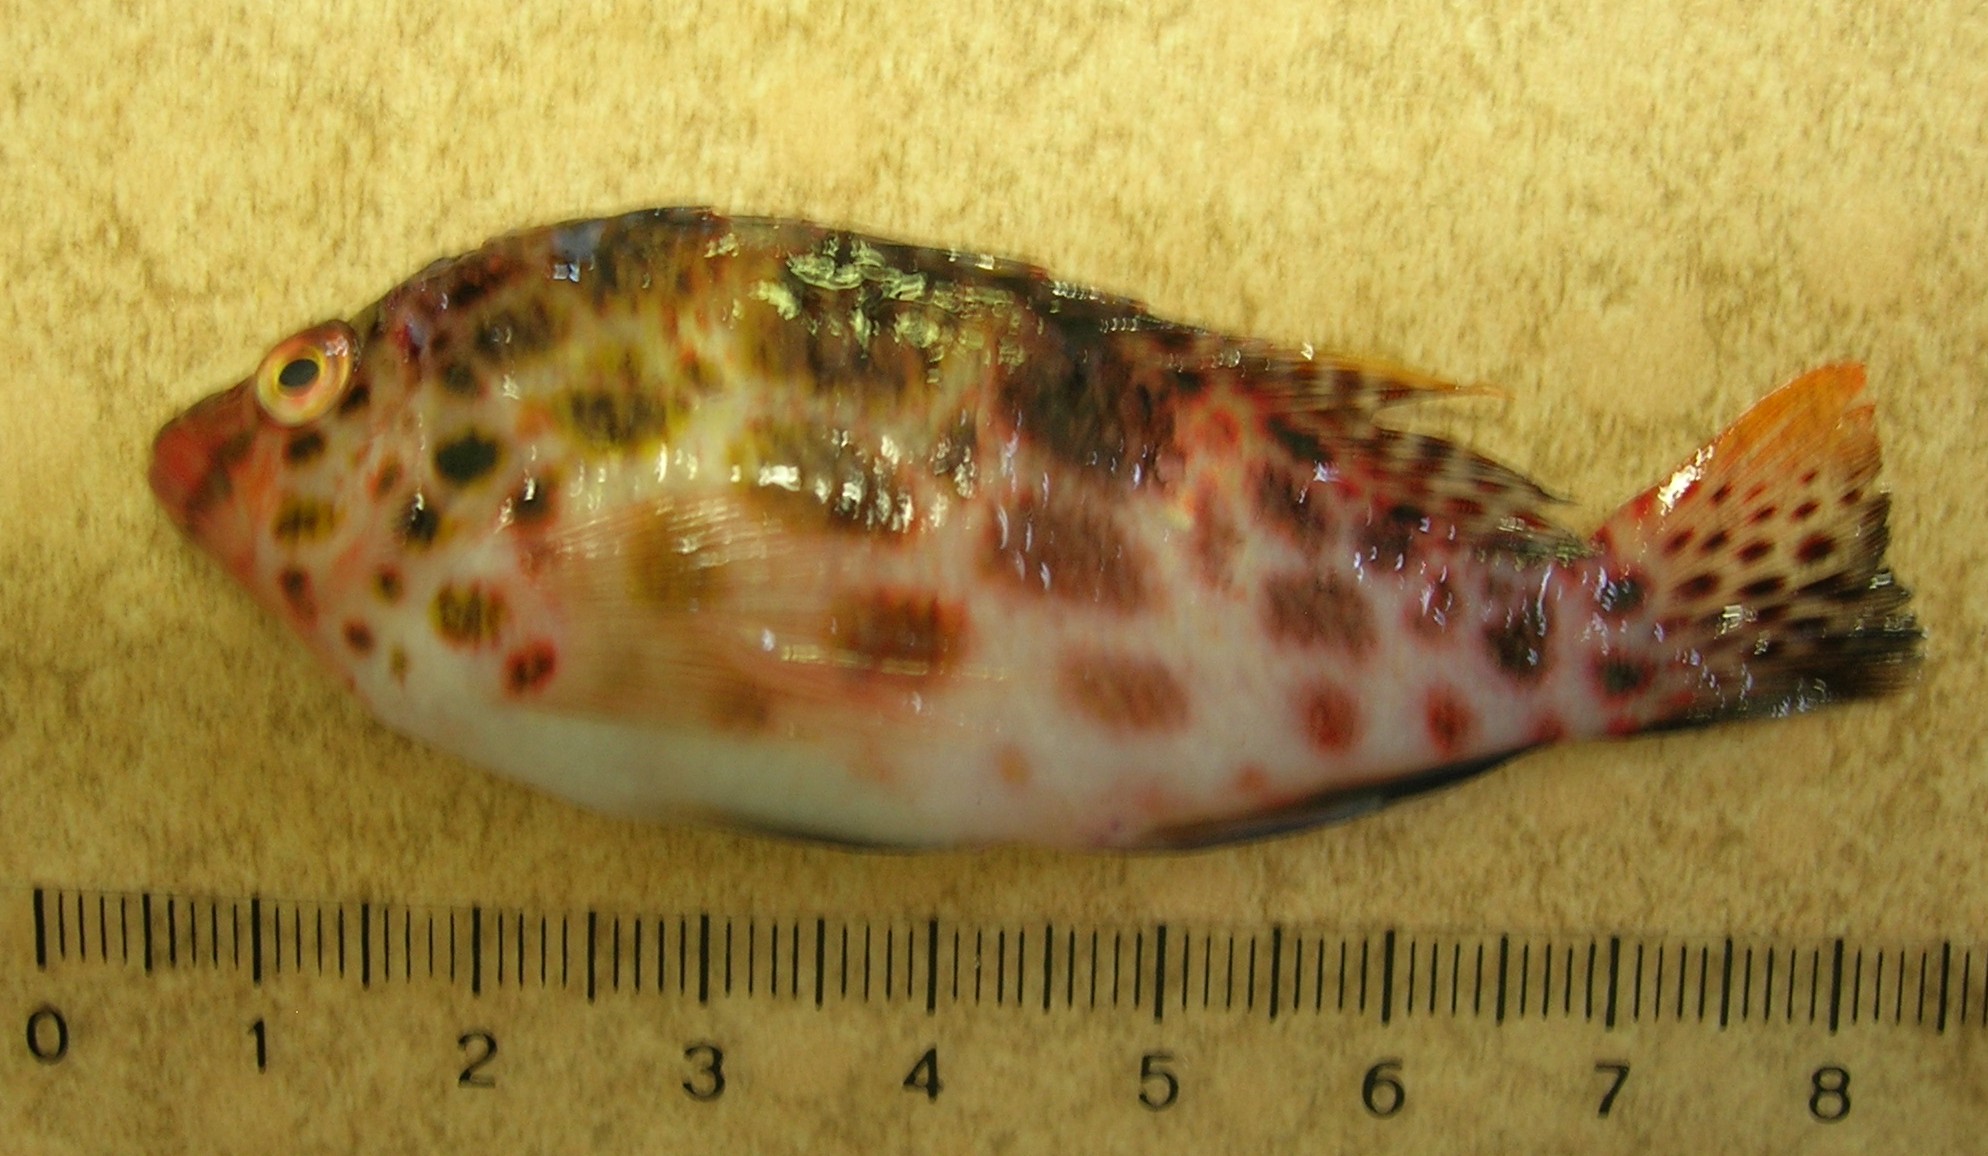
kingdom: Animalia
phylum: Chordata
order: Perciformes
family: Cirrhitidae
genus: Cirrhitichthys
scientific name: Cirrhitichthys oxycephalus
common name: Spotted hawkfish
